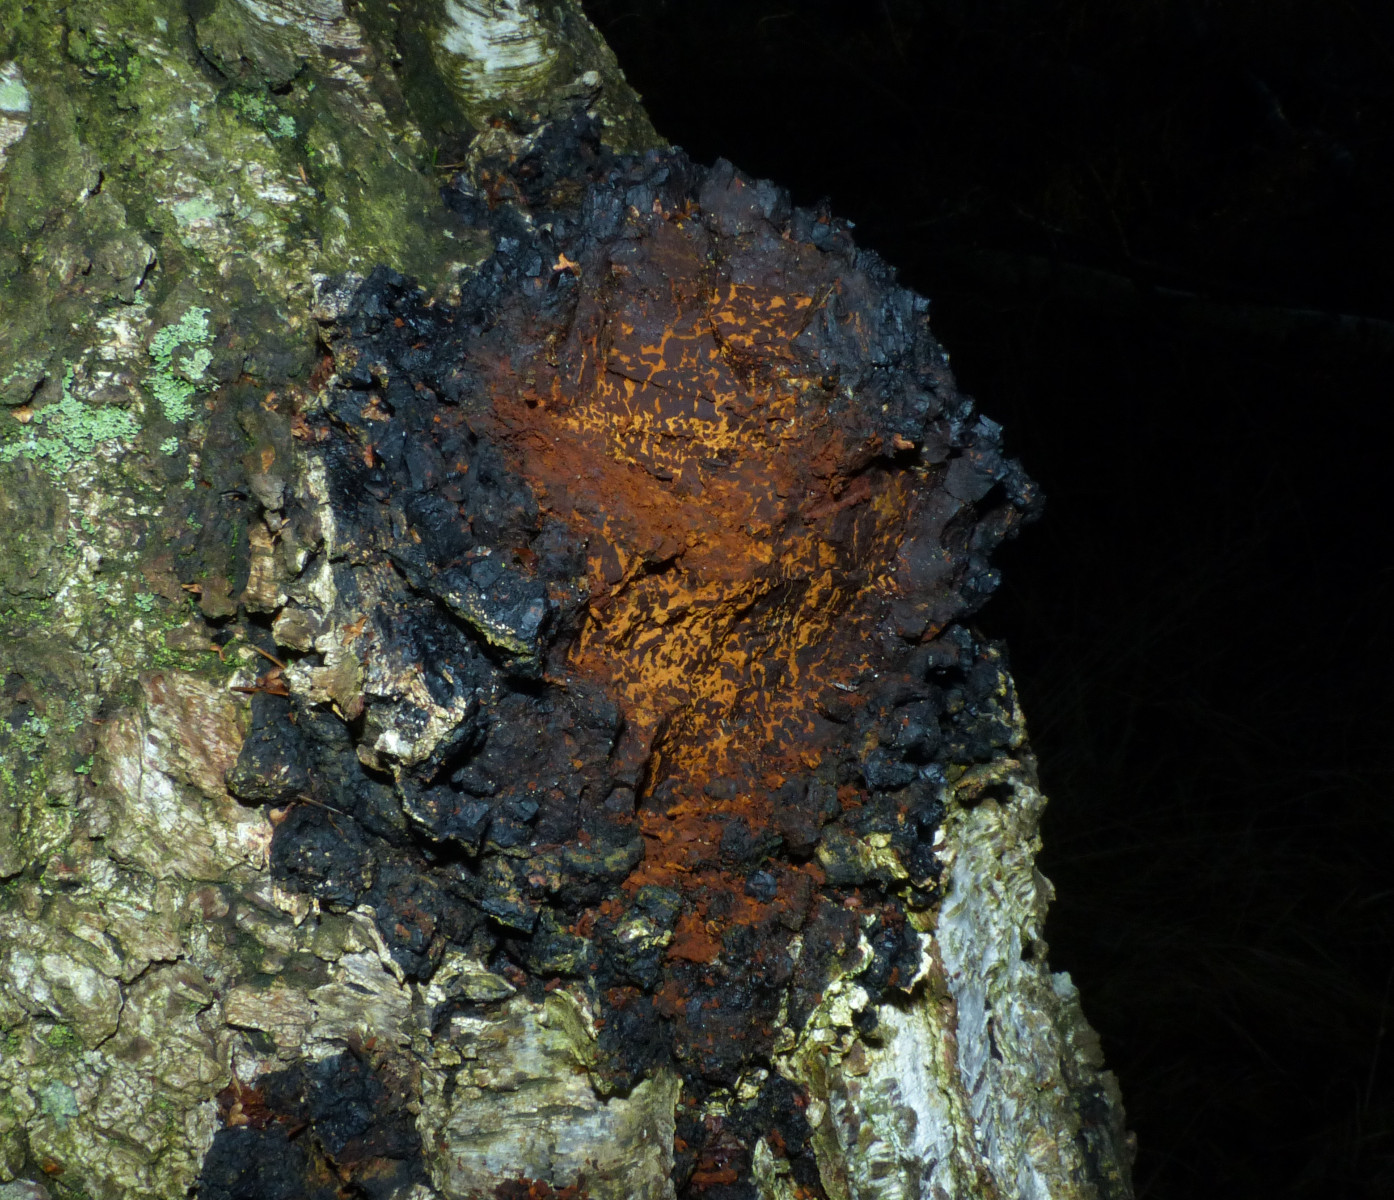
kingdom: Fungi
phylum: Basidiomycota
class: Agaricomycetes
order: Hymenochaetales
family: Hymenochaetaceae
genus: Inonotus
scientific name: Inonotus obliquus
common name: birke-spejlporesvamp
